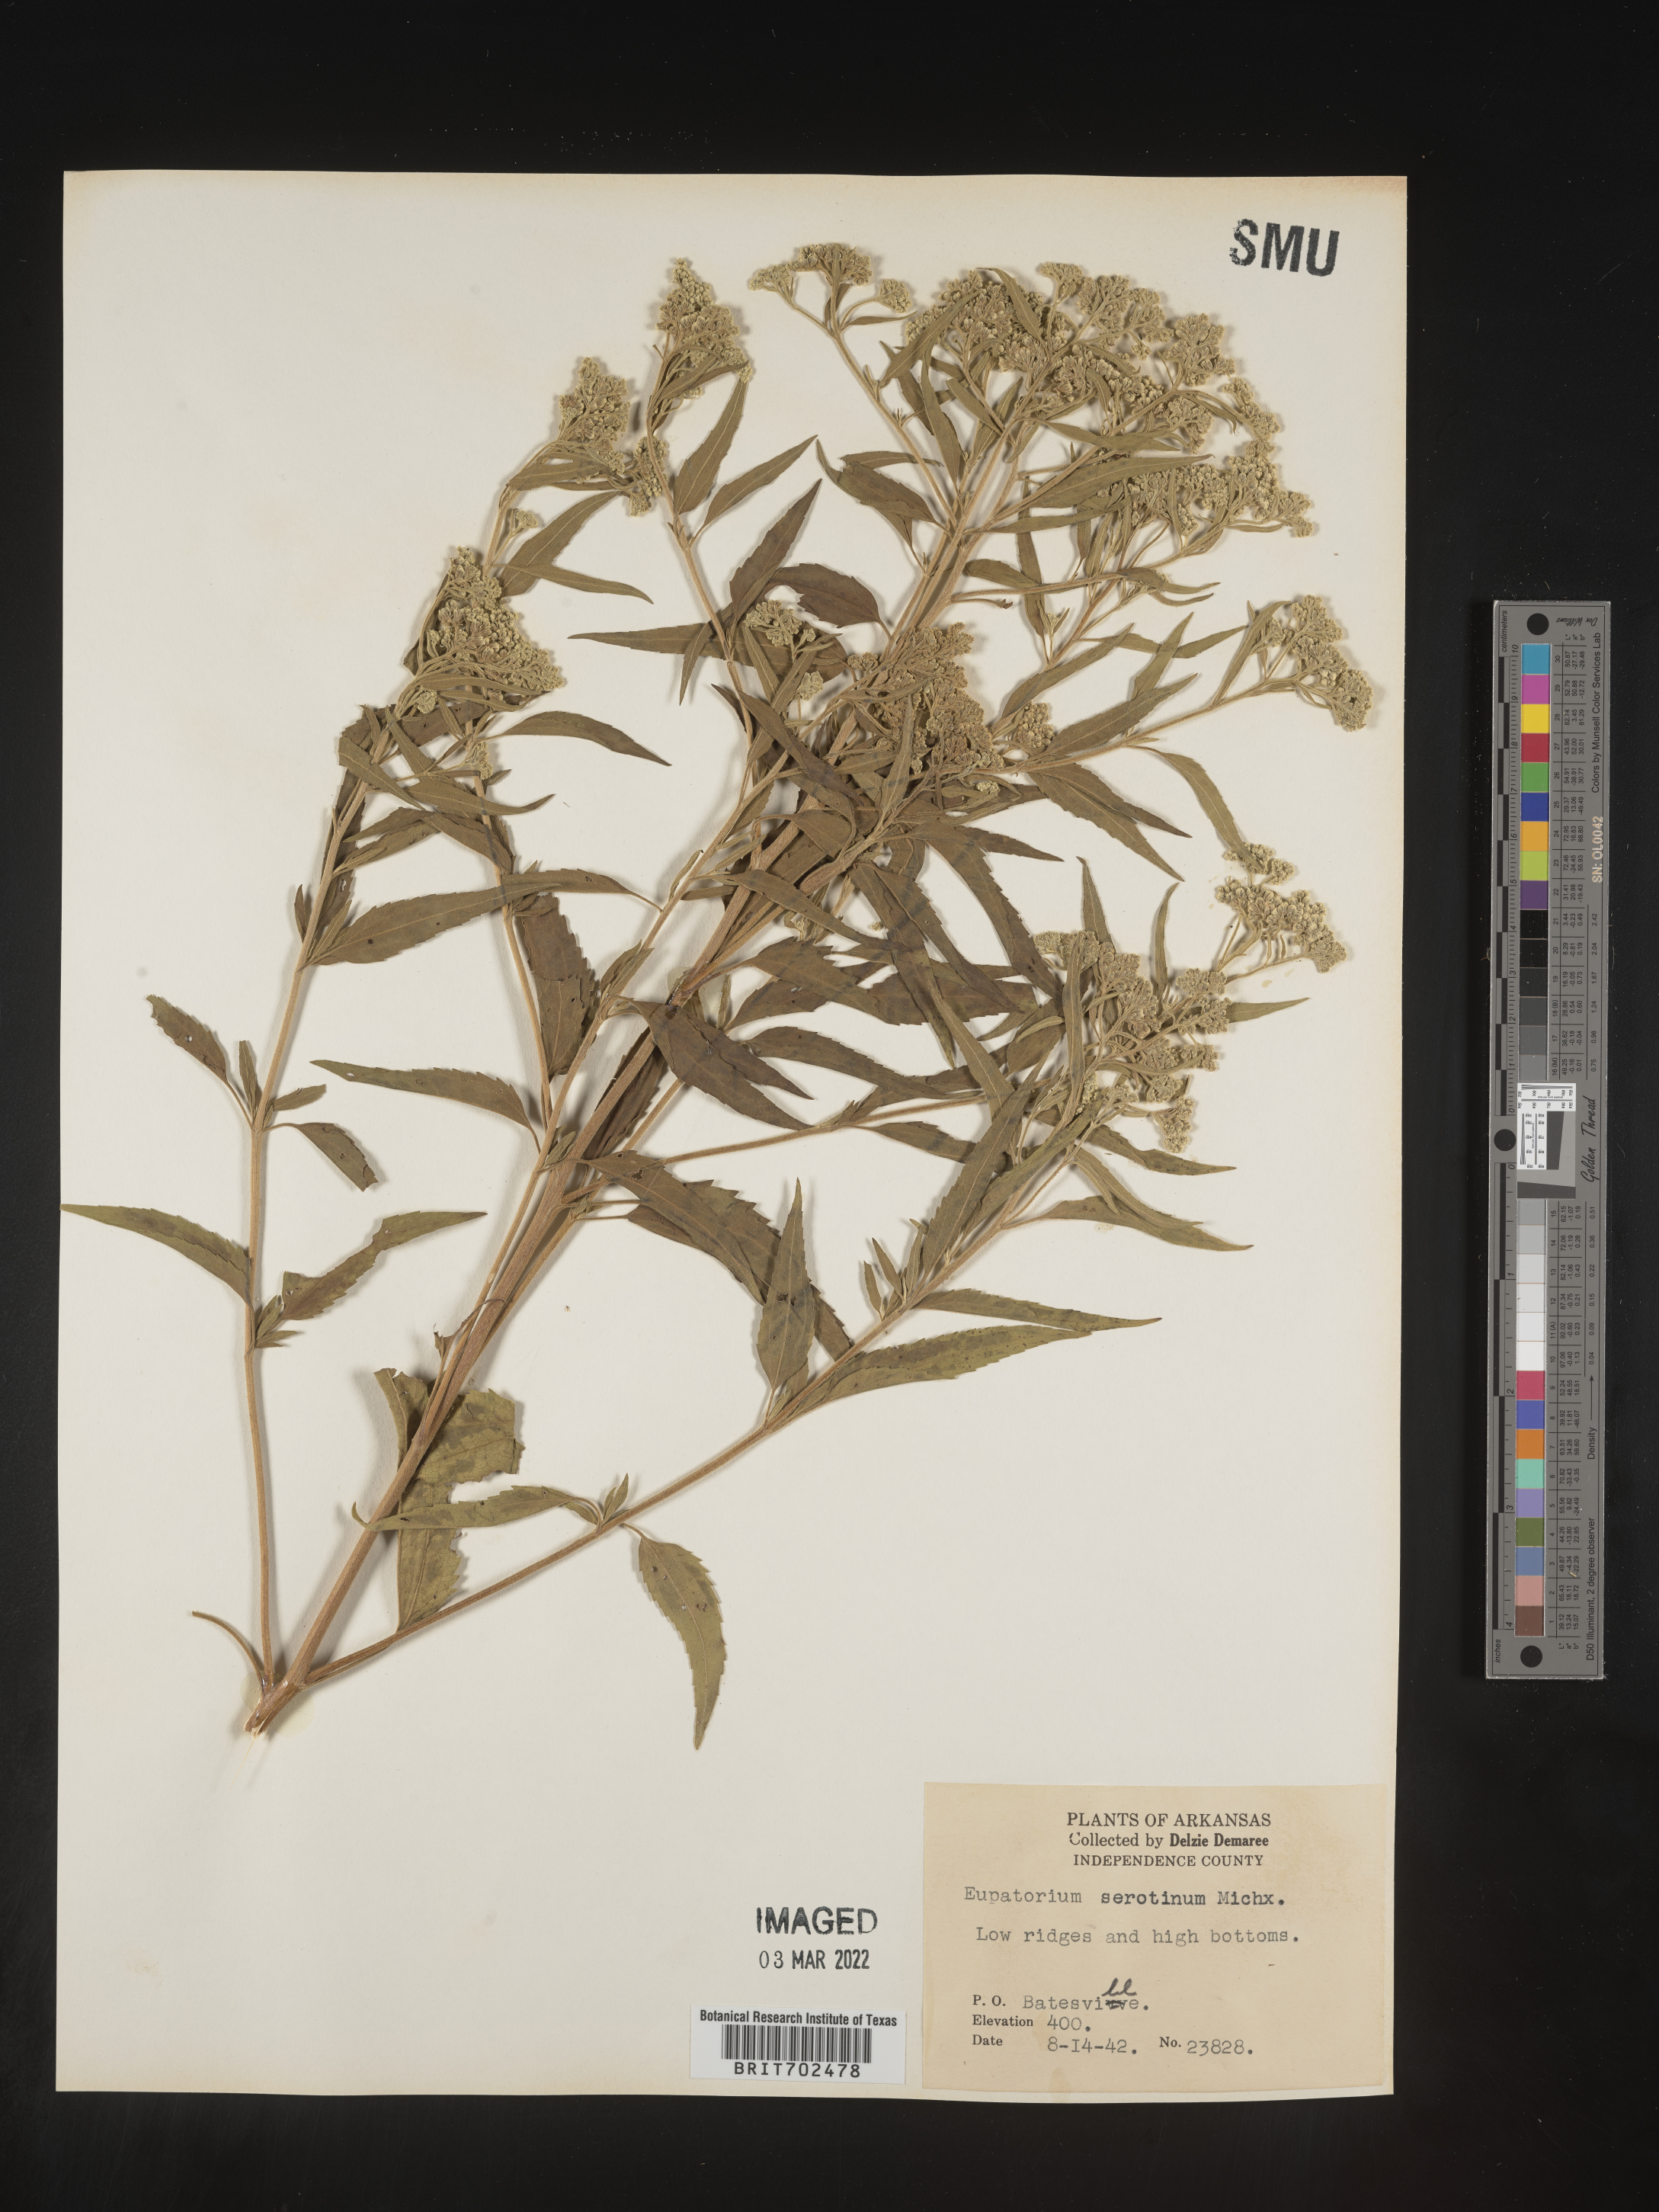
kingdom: Plantae
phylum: Tracheophyta
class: Magnoliopsida
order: Asterales
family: Asteraceae
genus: Eupatorium
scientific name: Eupatorium serotinum
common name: Late boneset
